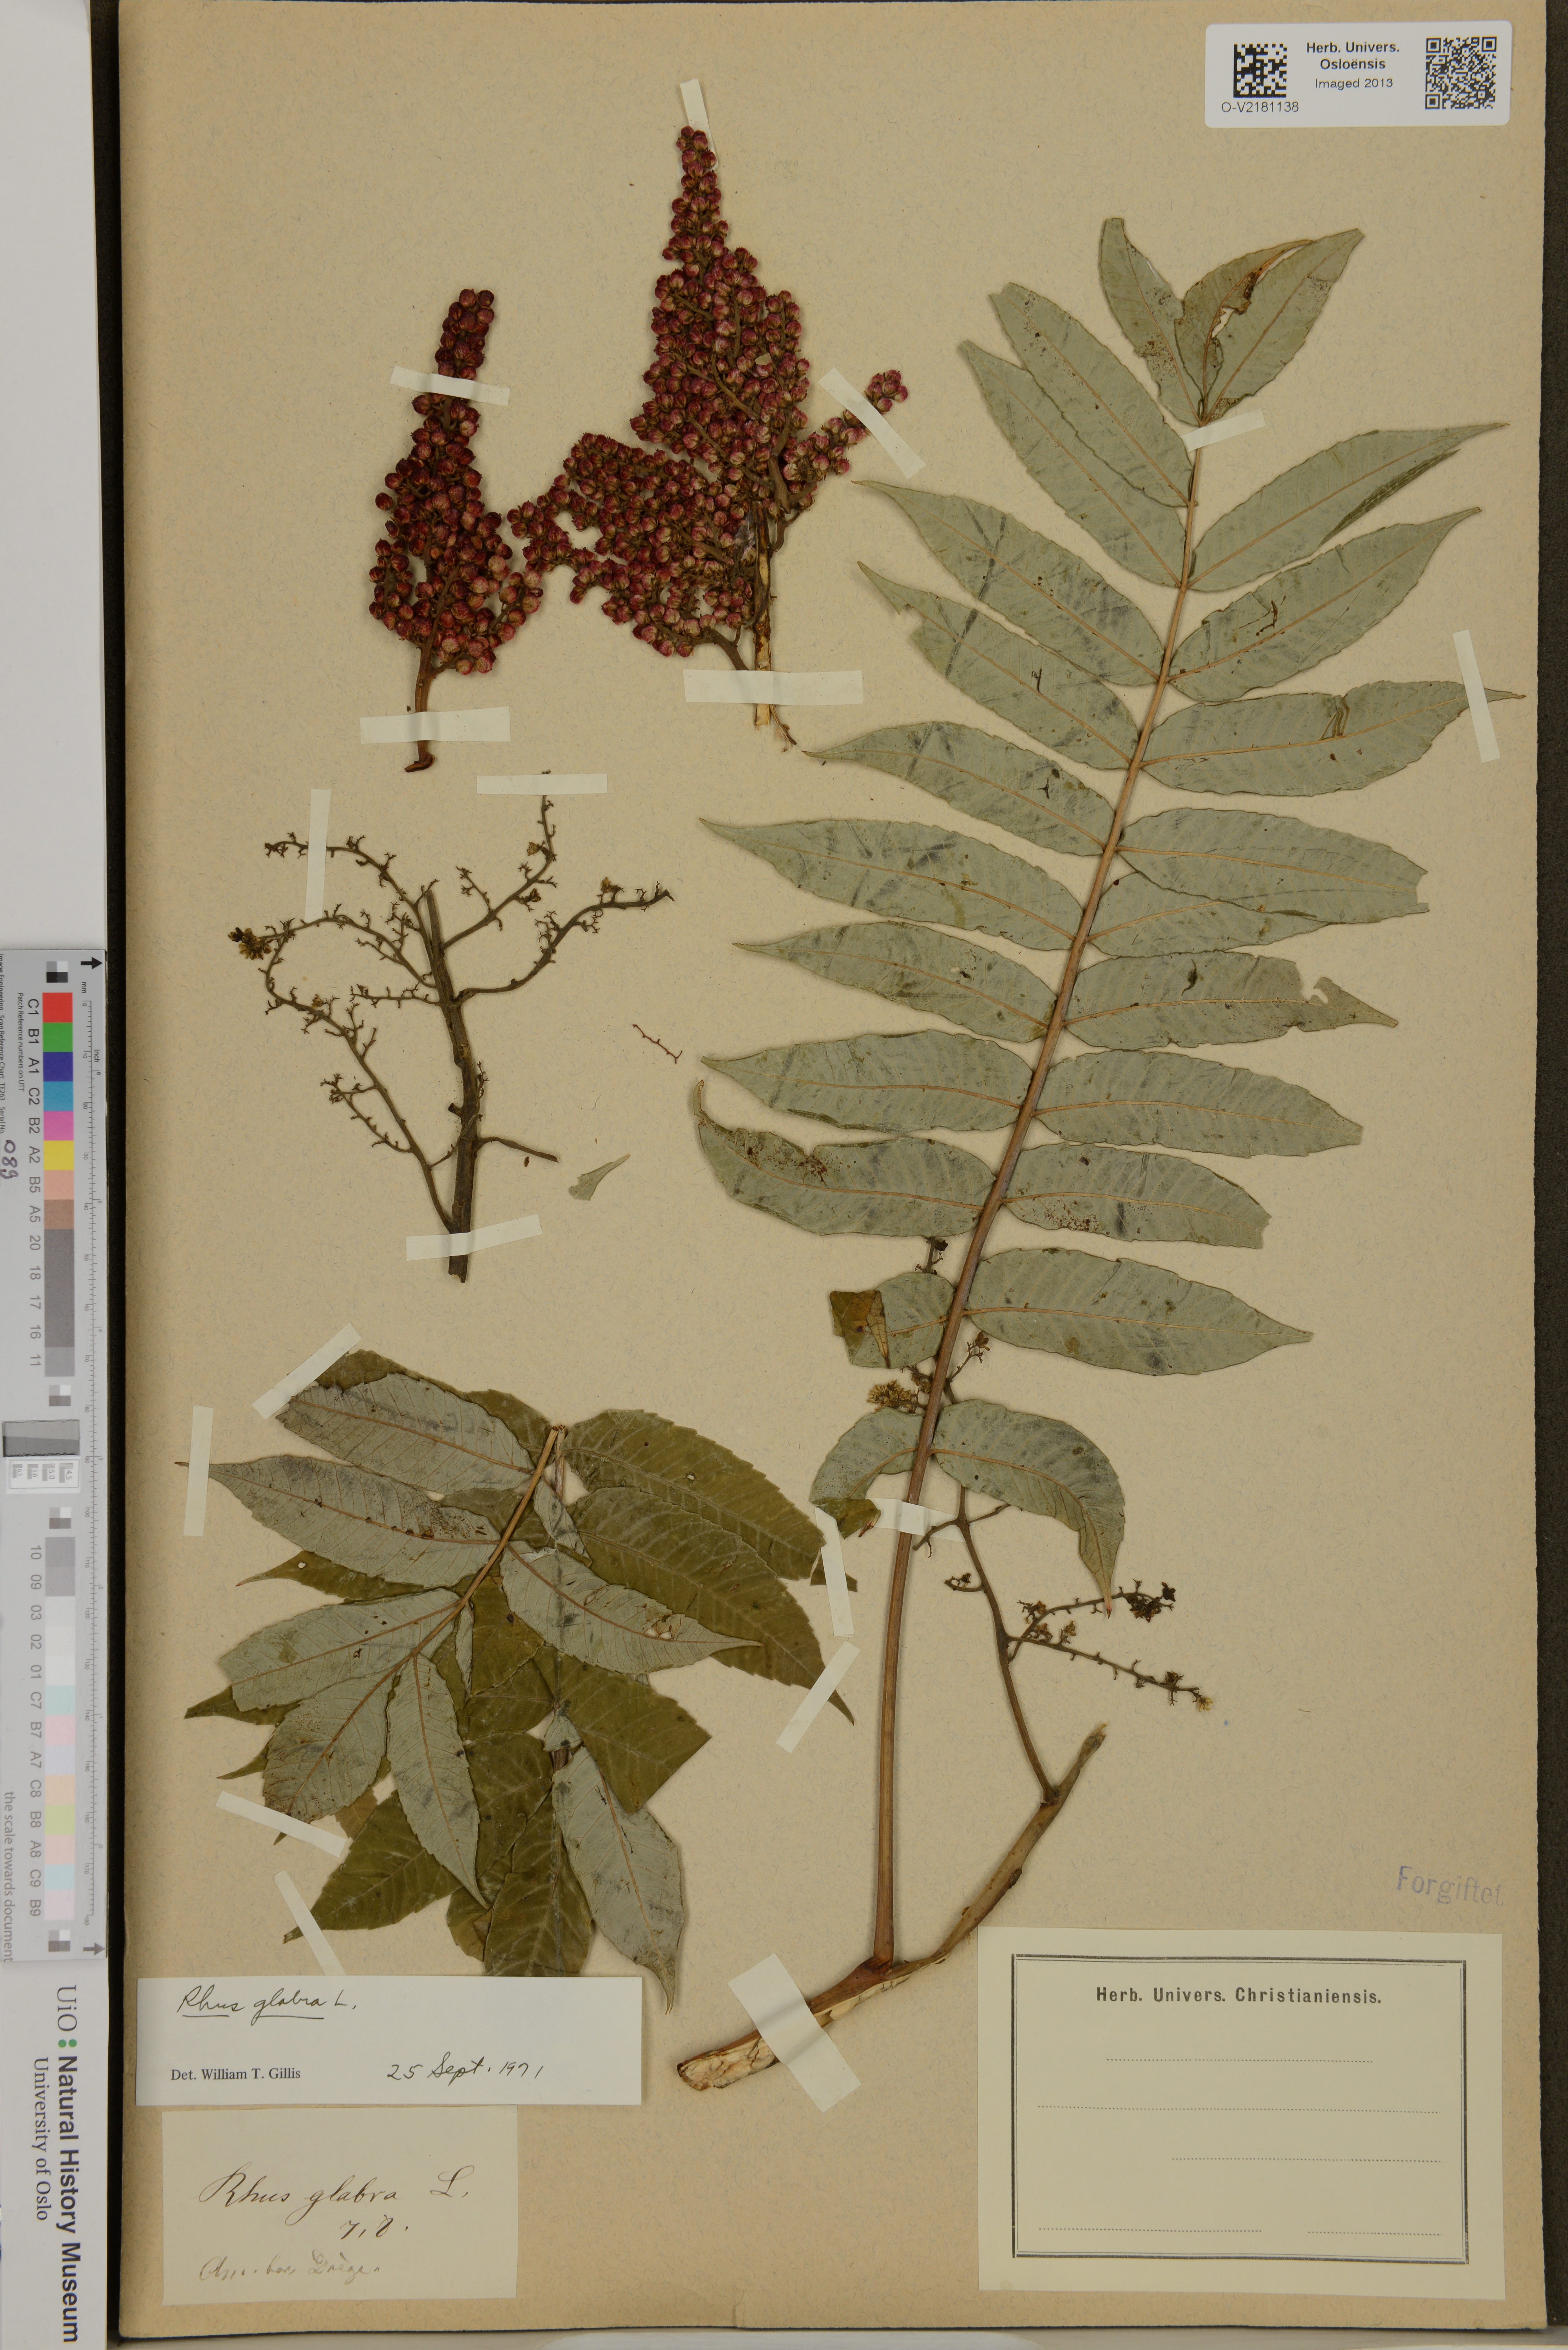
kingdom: Plantae
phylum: Tracheophyta
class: Magnoliopsida
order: Sapindales
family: Anacardiaceae
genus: Rhus
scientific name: Rhus glabra
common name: Scarlet sumac
